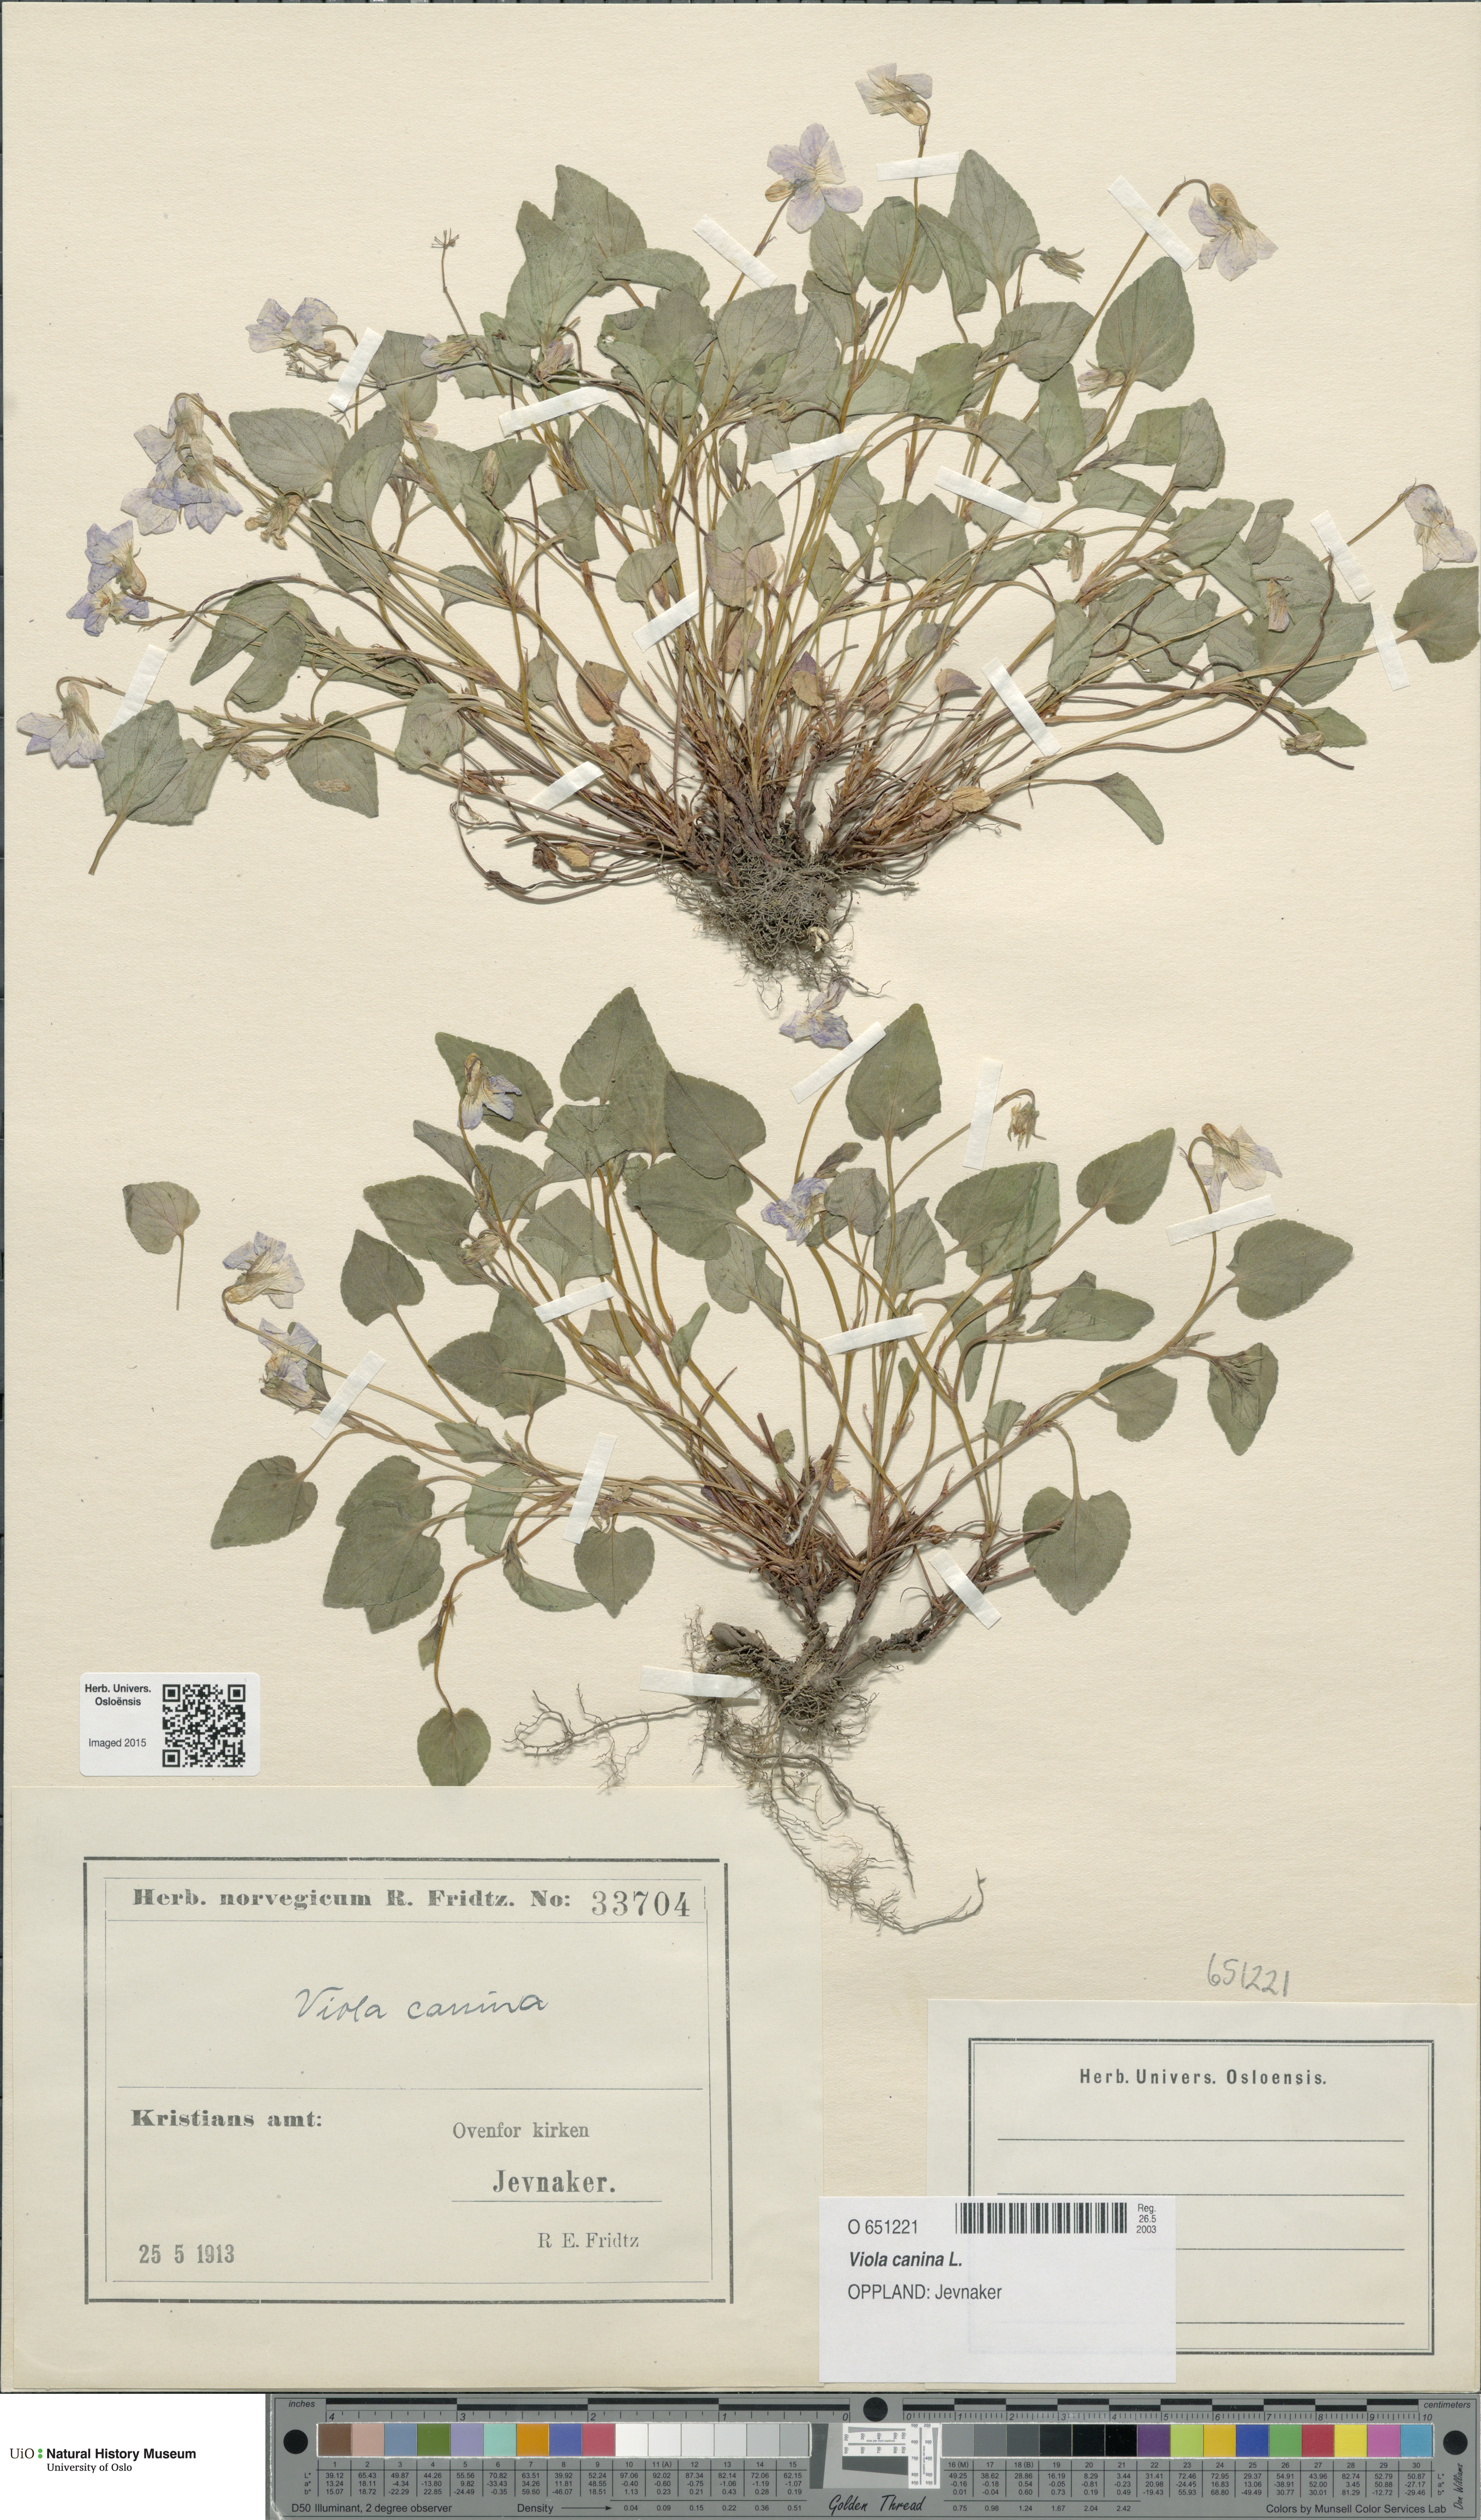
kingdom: Plantae
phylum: Tracheophyta
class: Magnoliopsida
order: Malpighiales
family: Violaceae
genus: Viola
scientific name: Viola canina
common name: Heath dog-violet
